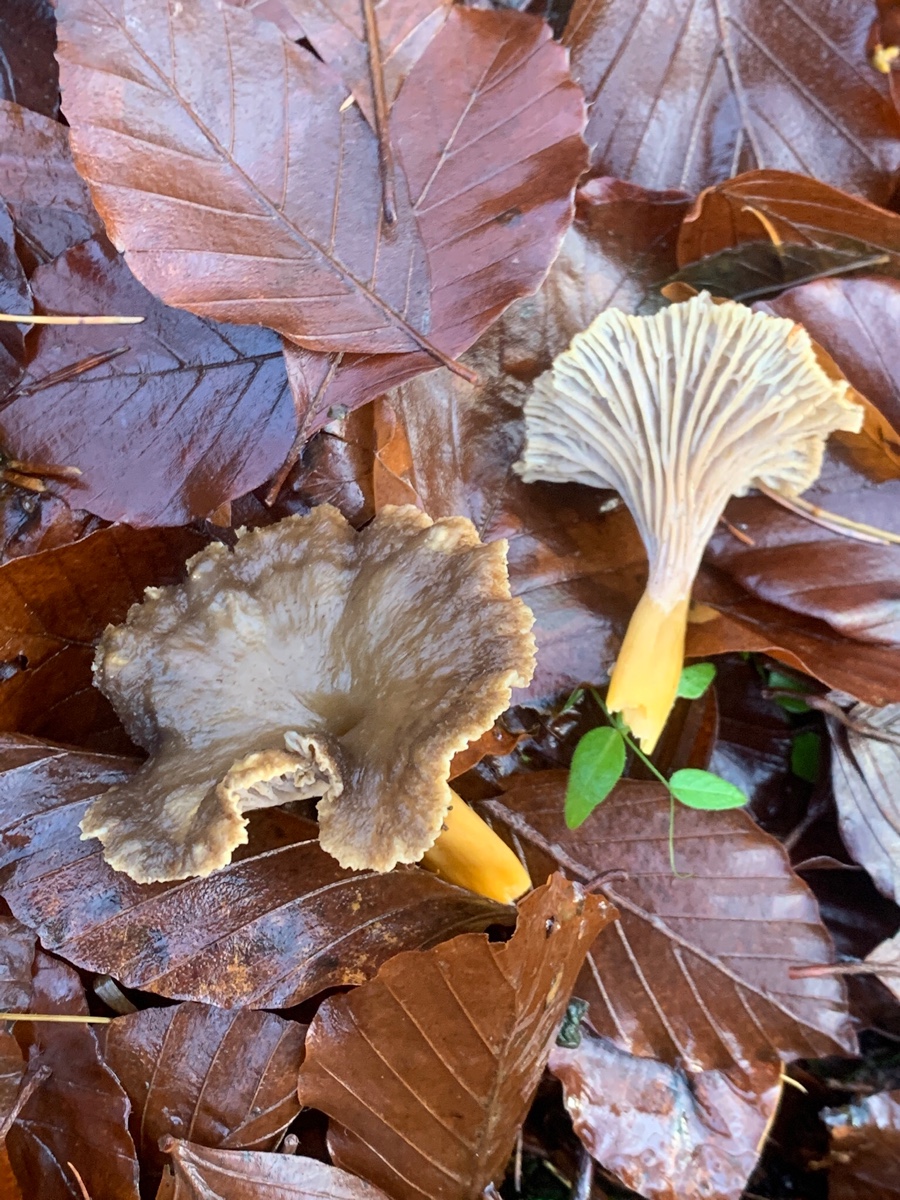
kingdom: Fungi
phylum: Basidiomycota
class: Agaricomycetes
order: Cantharellales
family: Hydnaceae
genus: Craterellus
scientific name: Craterellus tubaeformis
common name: tragt-kantarel
